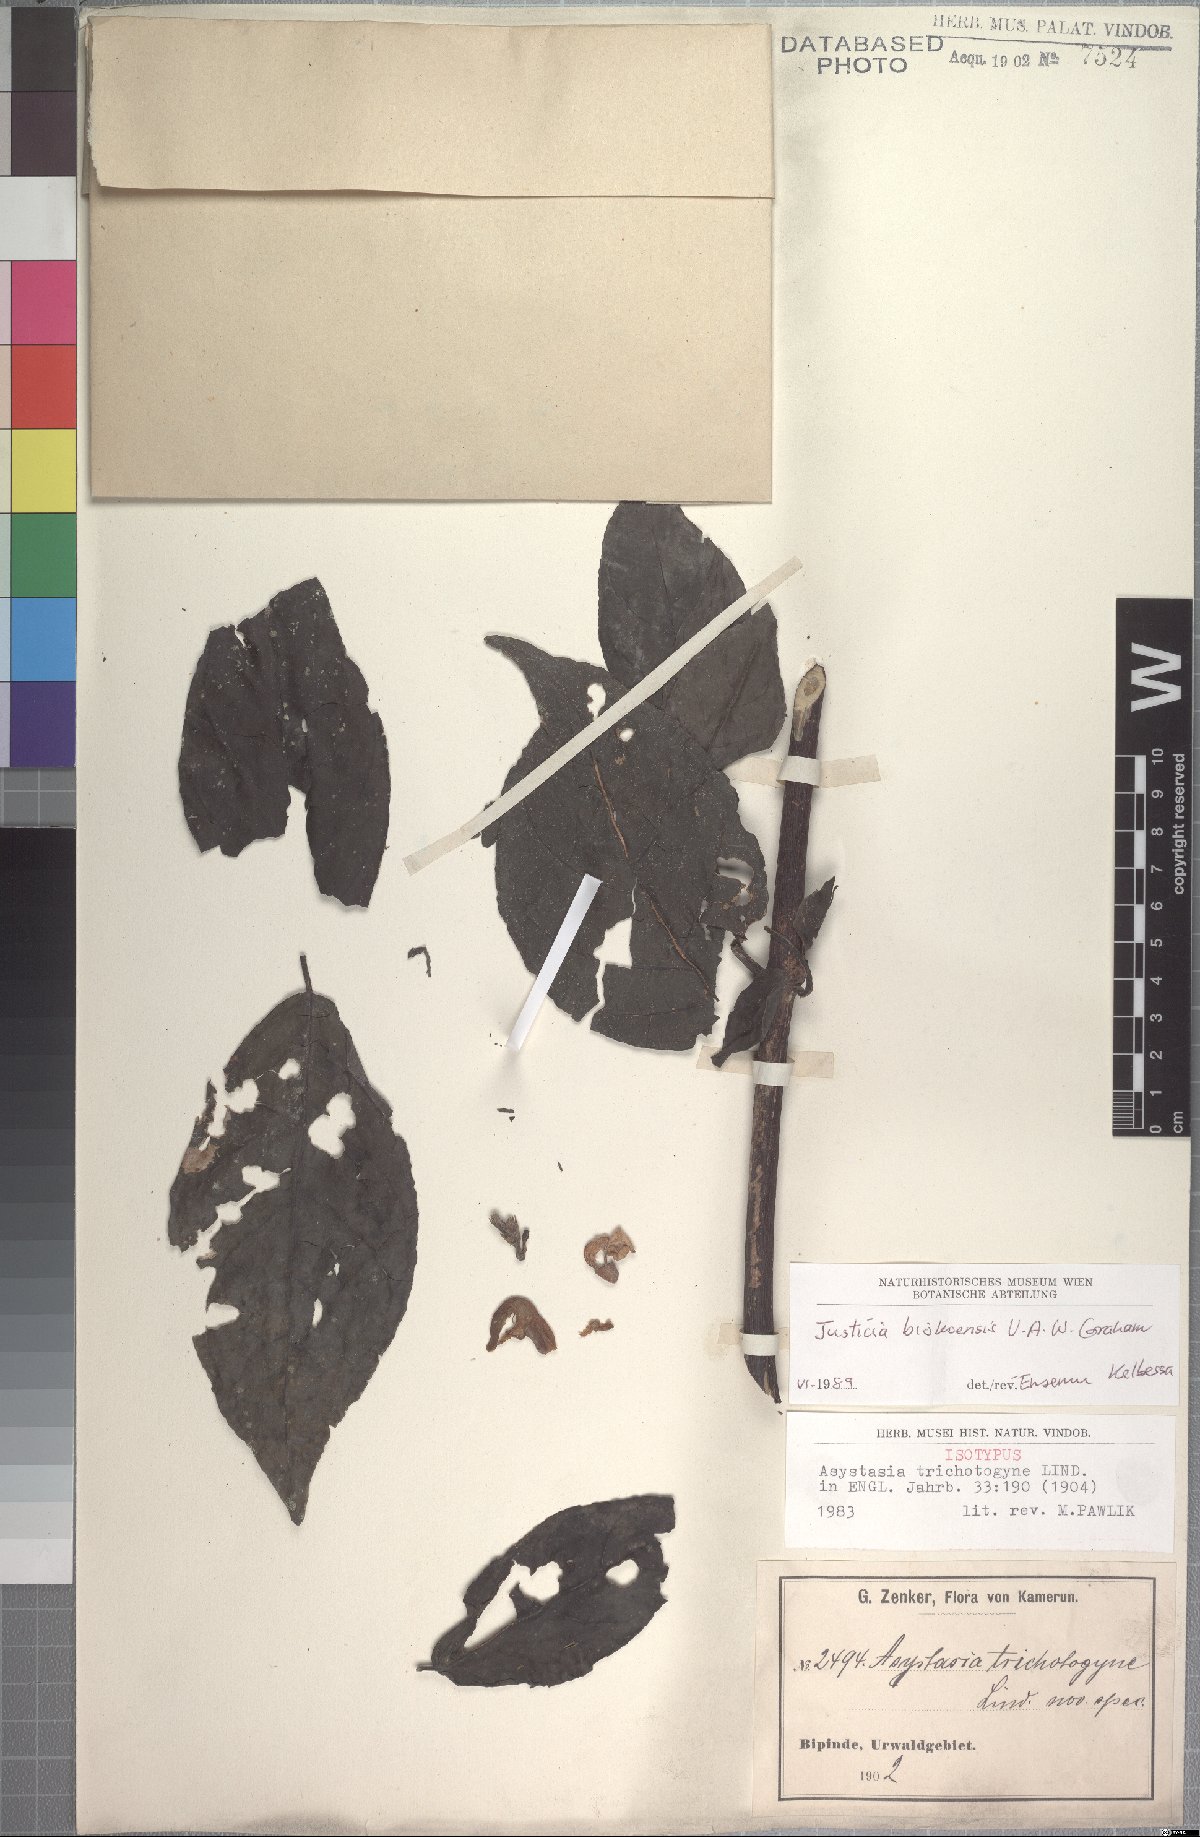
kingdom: Plantae
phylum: Tracheophyta
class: Magnoliopsida
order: Lamiales
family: Acanthaceae
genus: Asystasia
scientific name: Asystasia trichotogyne
